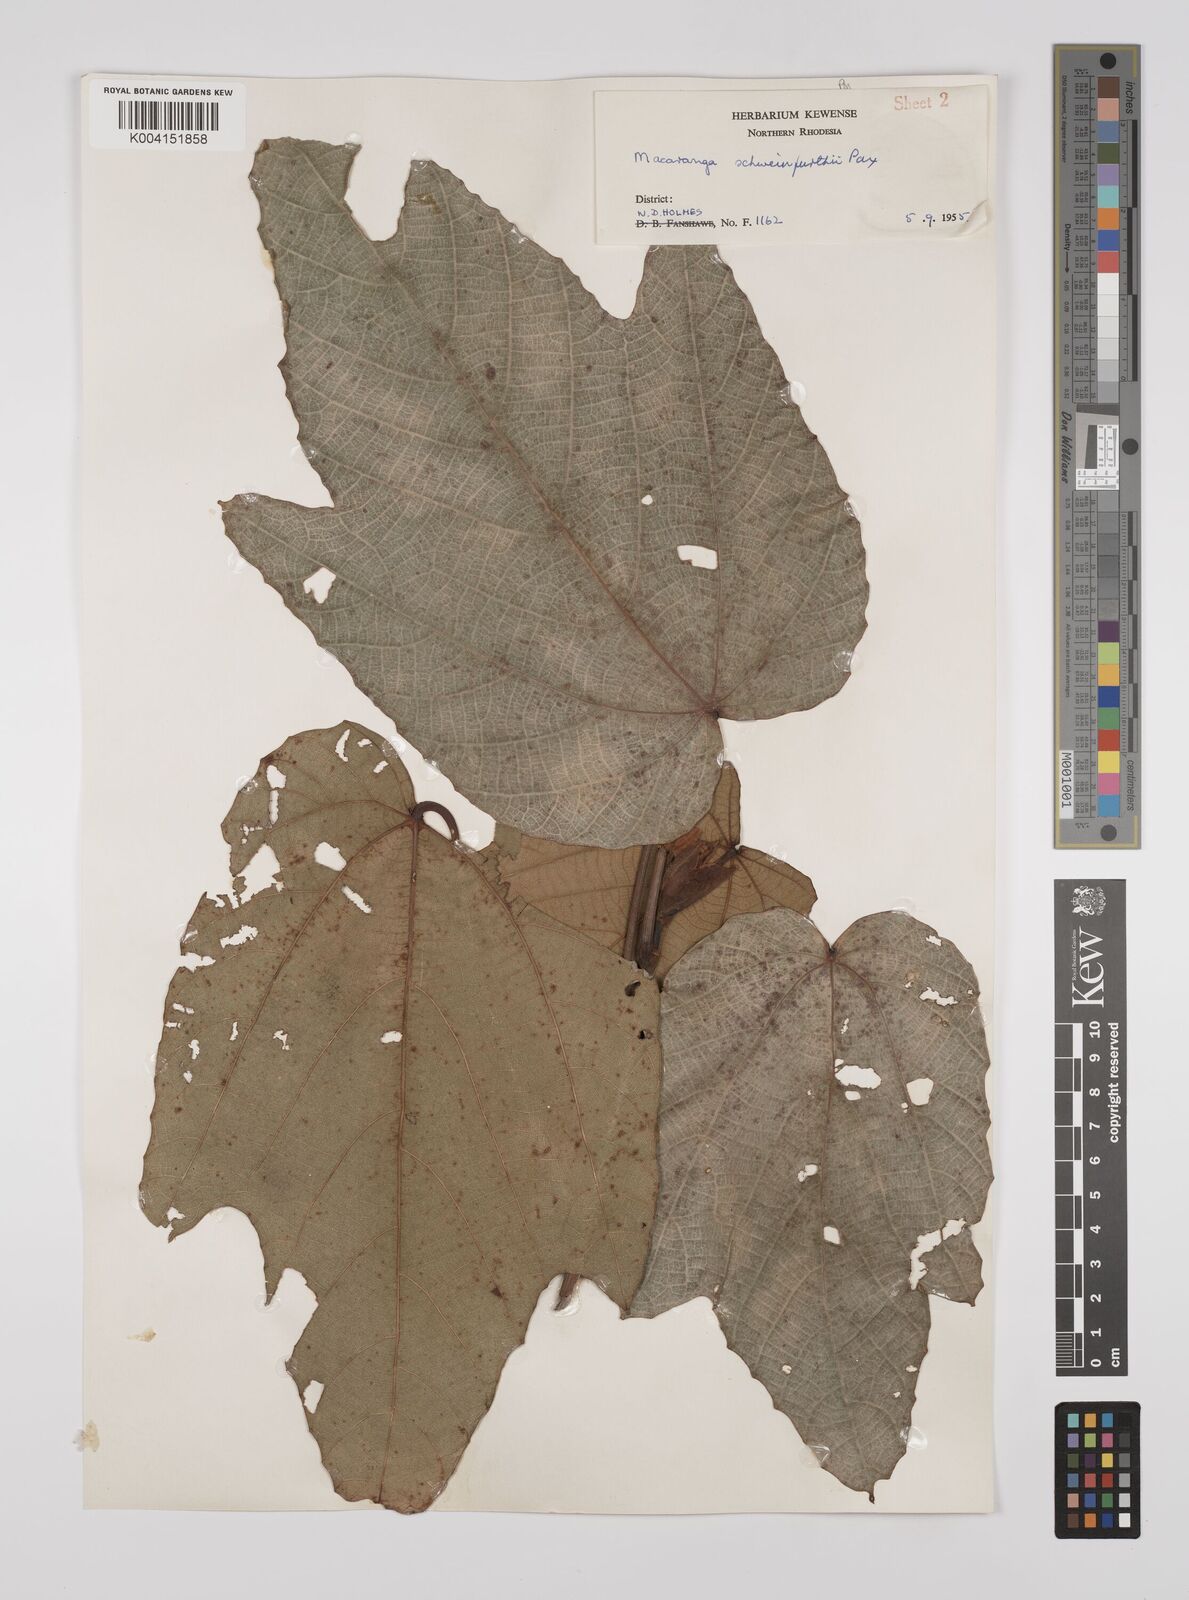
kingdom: Plantae
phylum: Tracheophyta
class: Magnoliopsida
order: Malpighiales
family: Euphorbiaceae
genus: Macaranga
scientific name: Macaranga schweinfurthii
